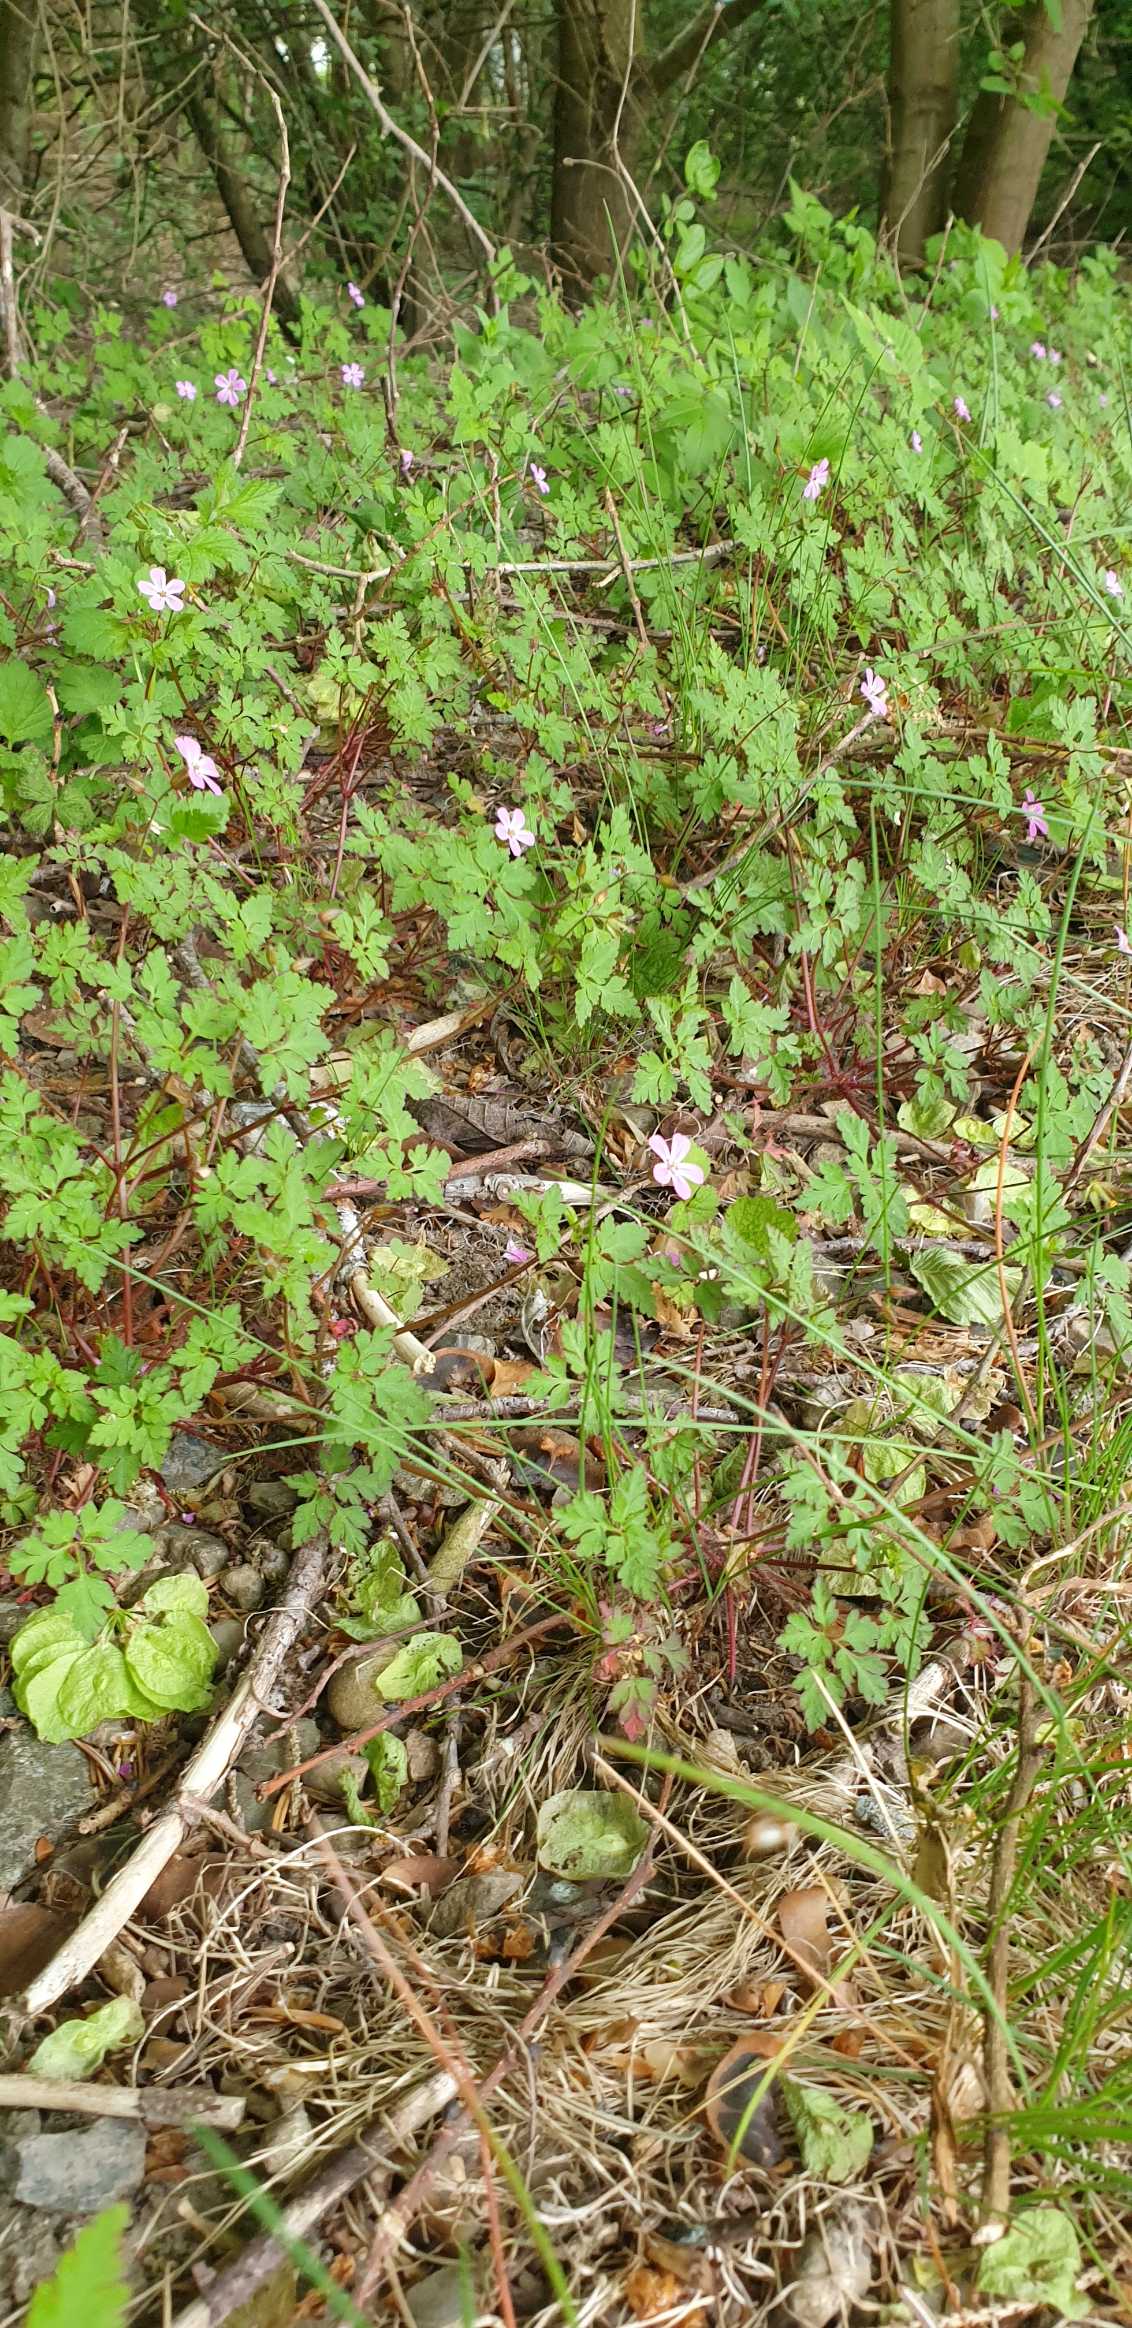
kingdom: Plantae
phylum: Tracheophyta
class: Magnoliopsida
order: Geraniales
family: Geraniaceae
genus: Geranium
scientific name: Geranium robertianum
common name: Stinkende storkenæb
